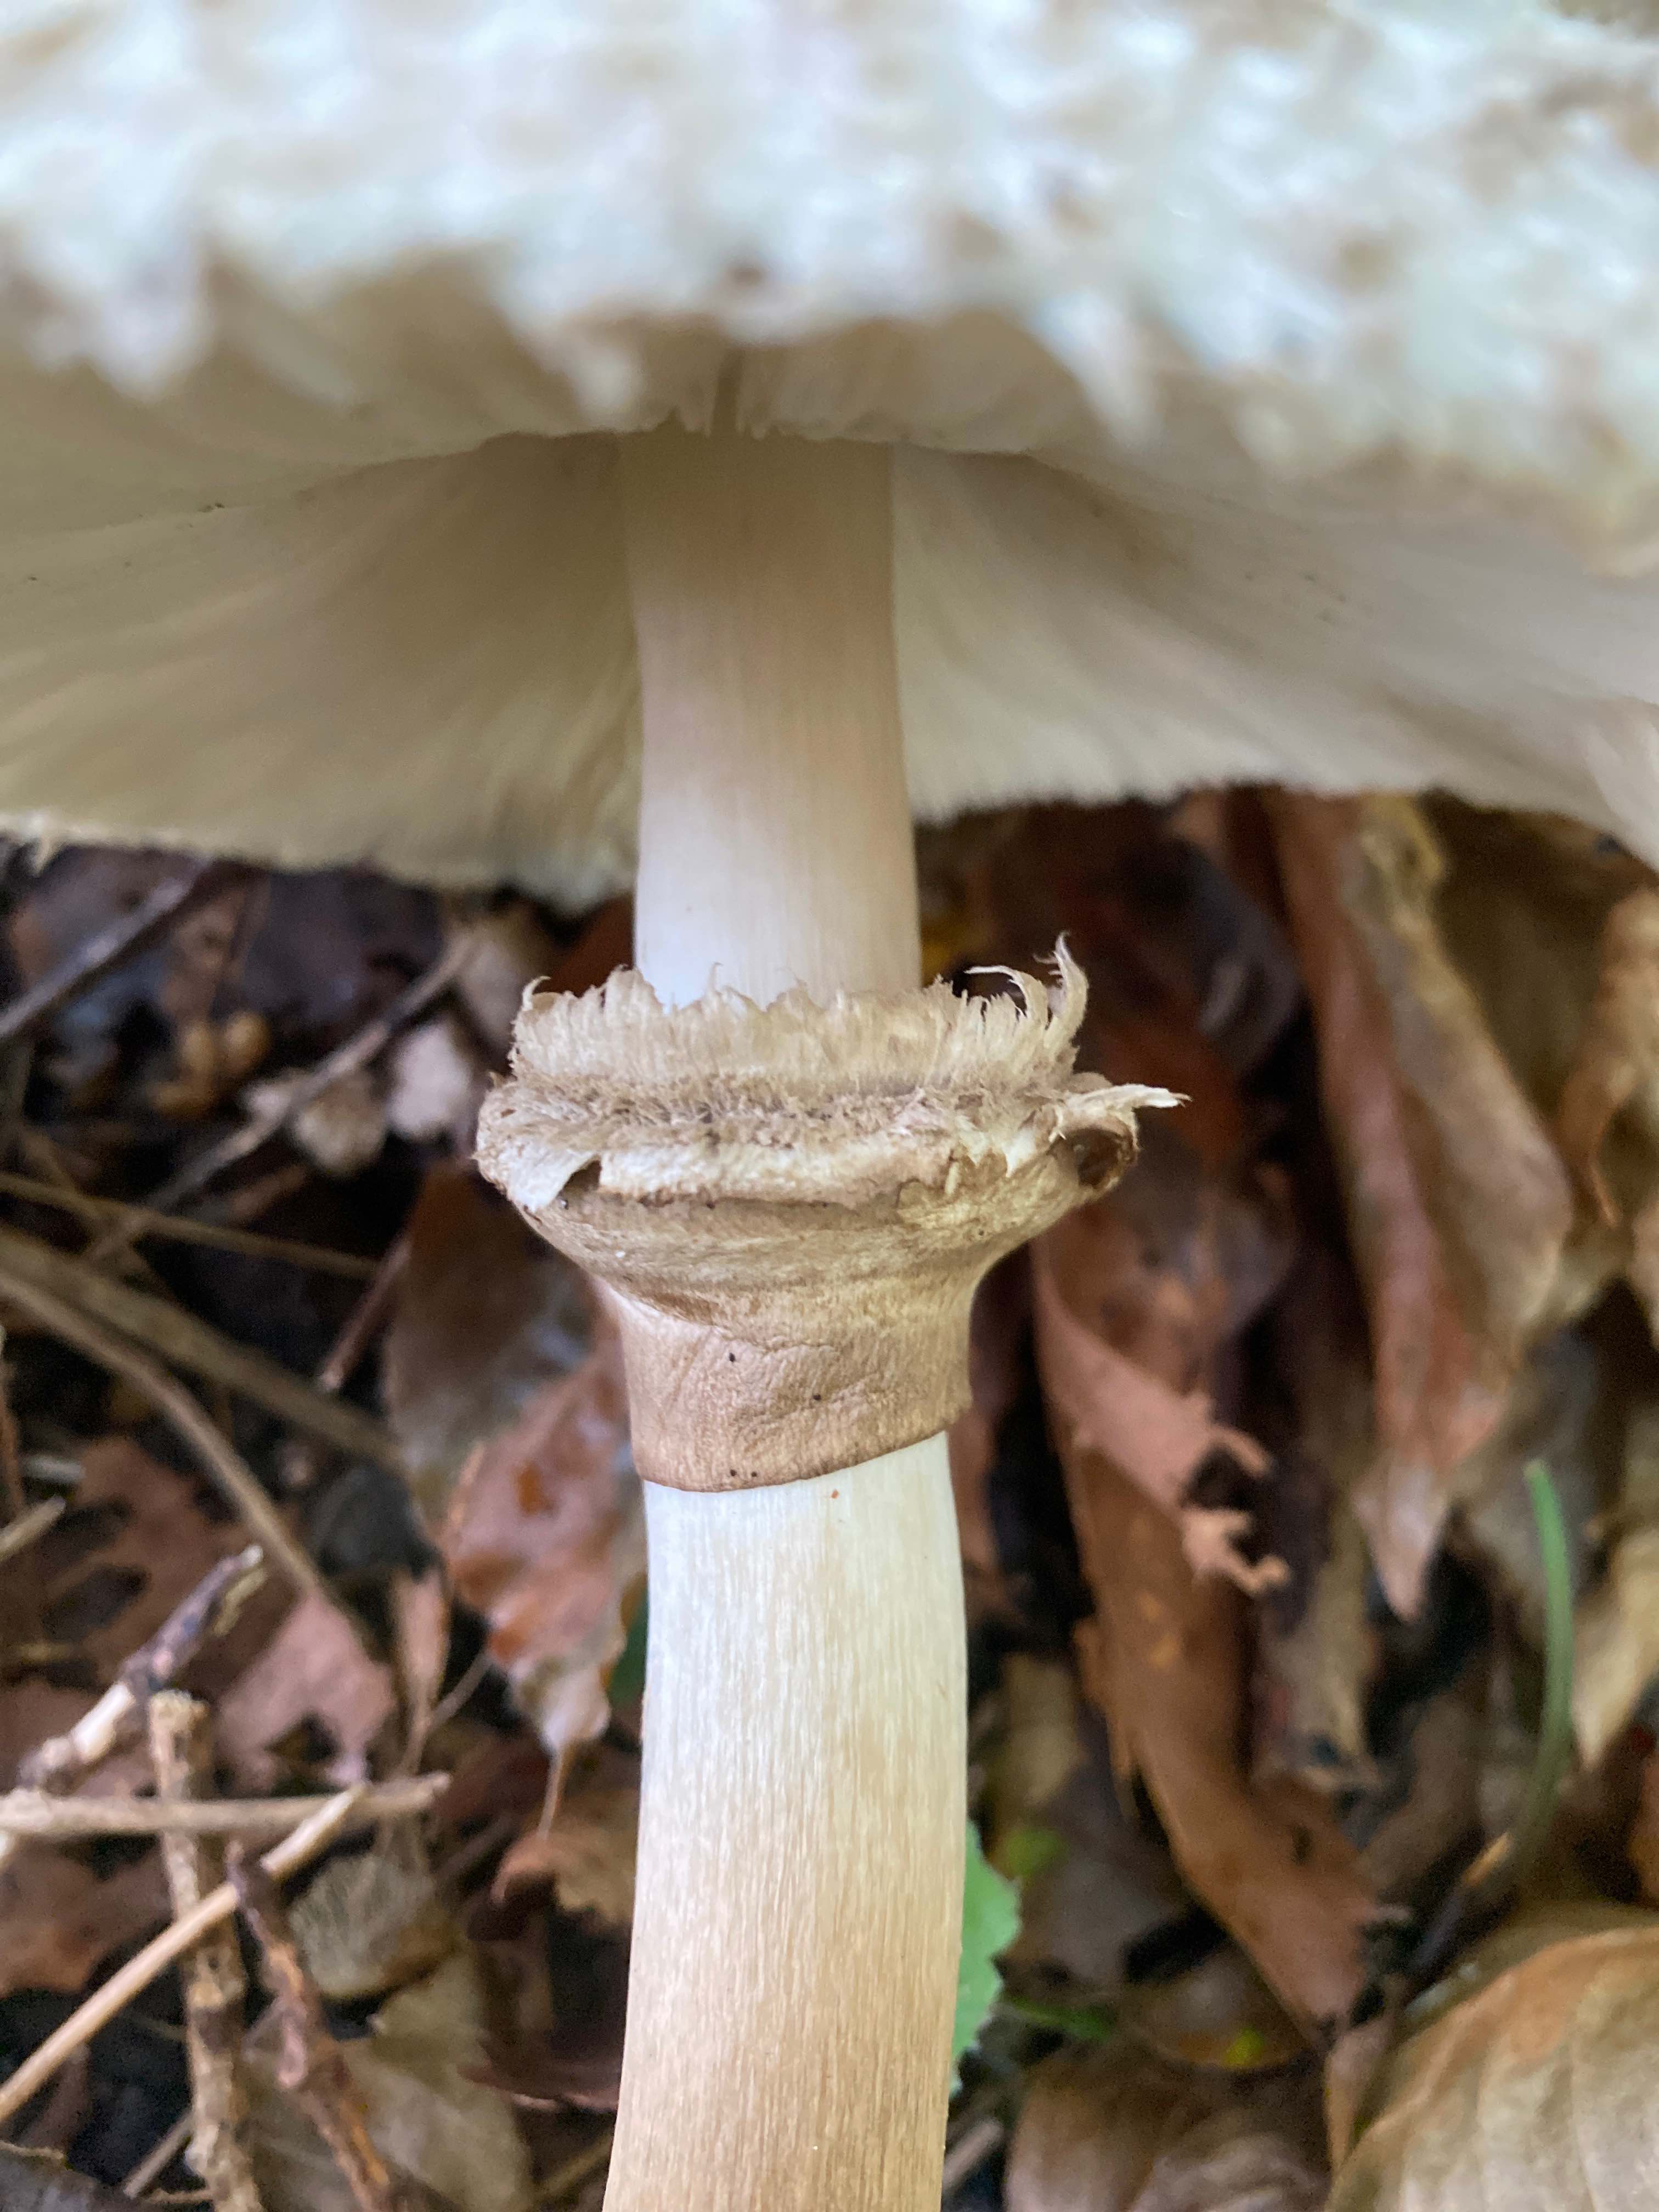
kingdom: Fungi
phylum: Basidiomycota
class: Agaricomycetes
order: Agaricales
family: Agaricaceae
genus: Chlorophyllum
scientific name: Chlorophyllum rhacodes
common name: ægte rabarberhat
